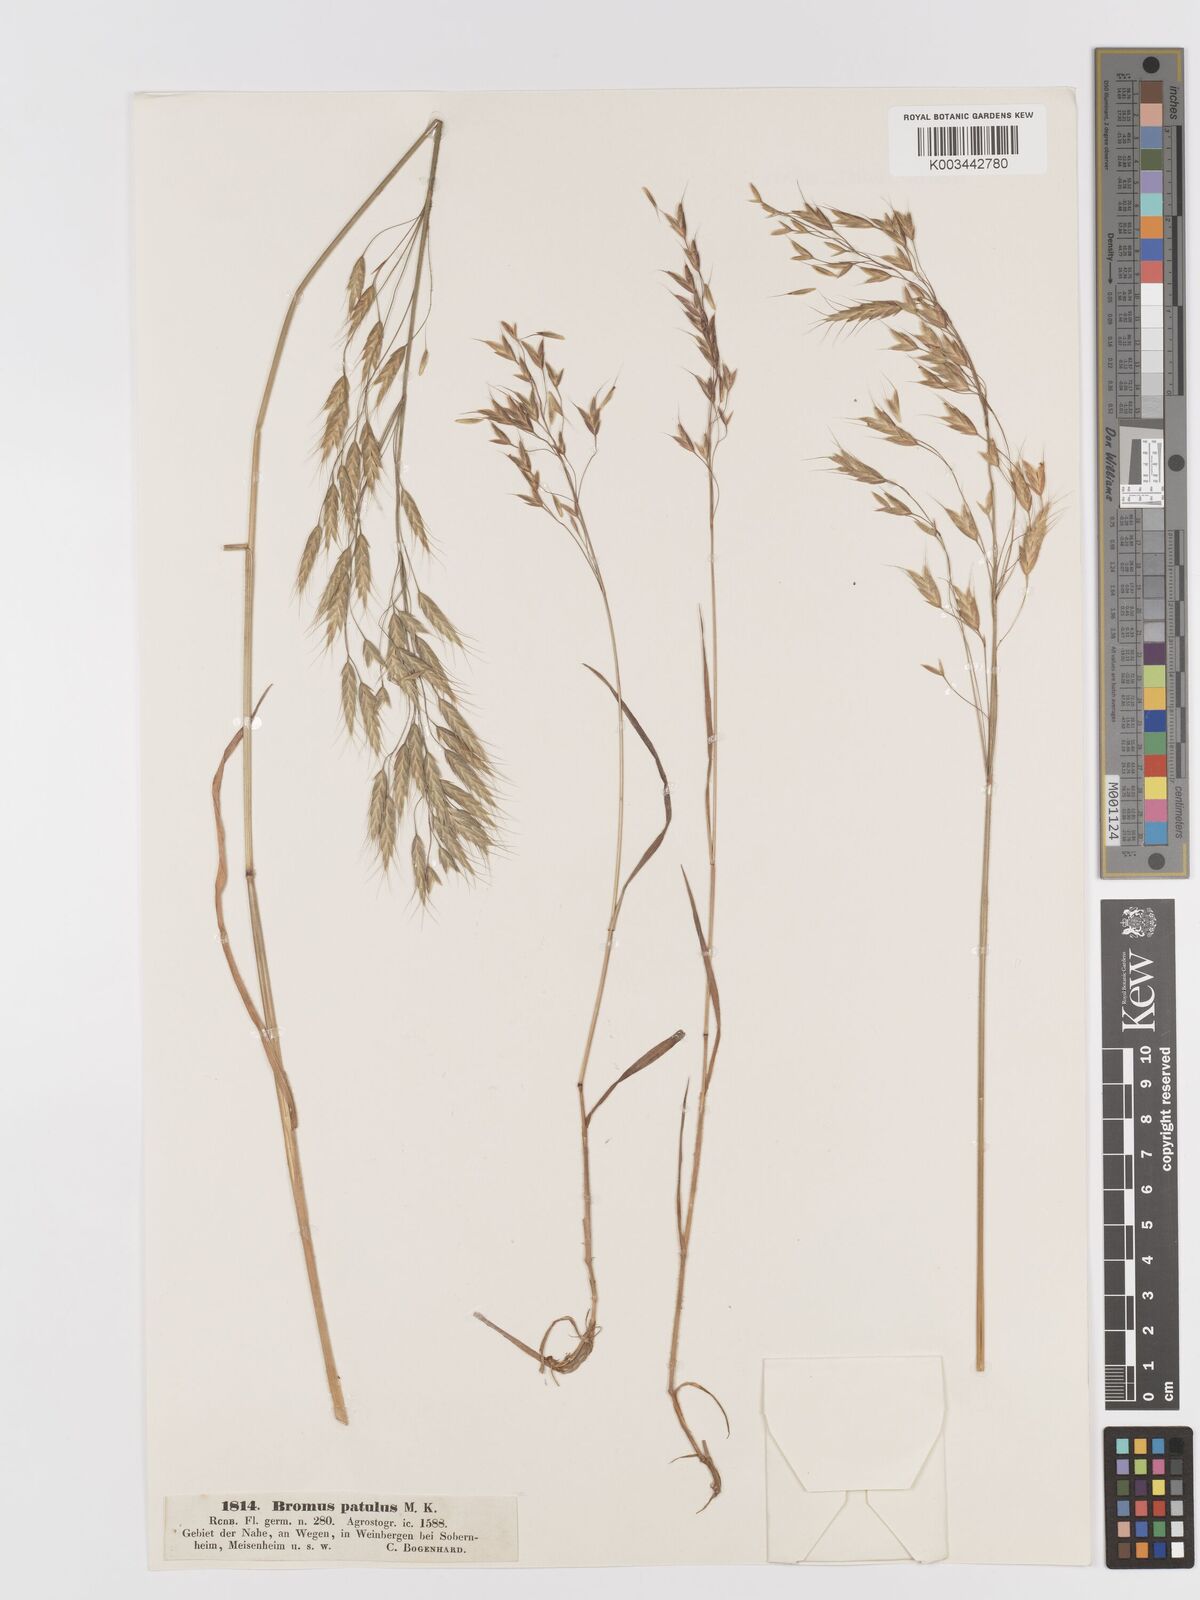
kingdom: Plantae
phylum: Tracheophyta
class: Liliopsida
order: Poales
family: Poaceae
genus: Bromus
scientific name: Bromus japonicus
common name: Japanese brome
